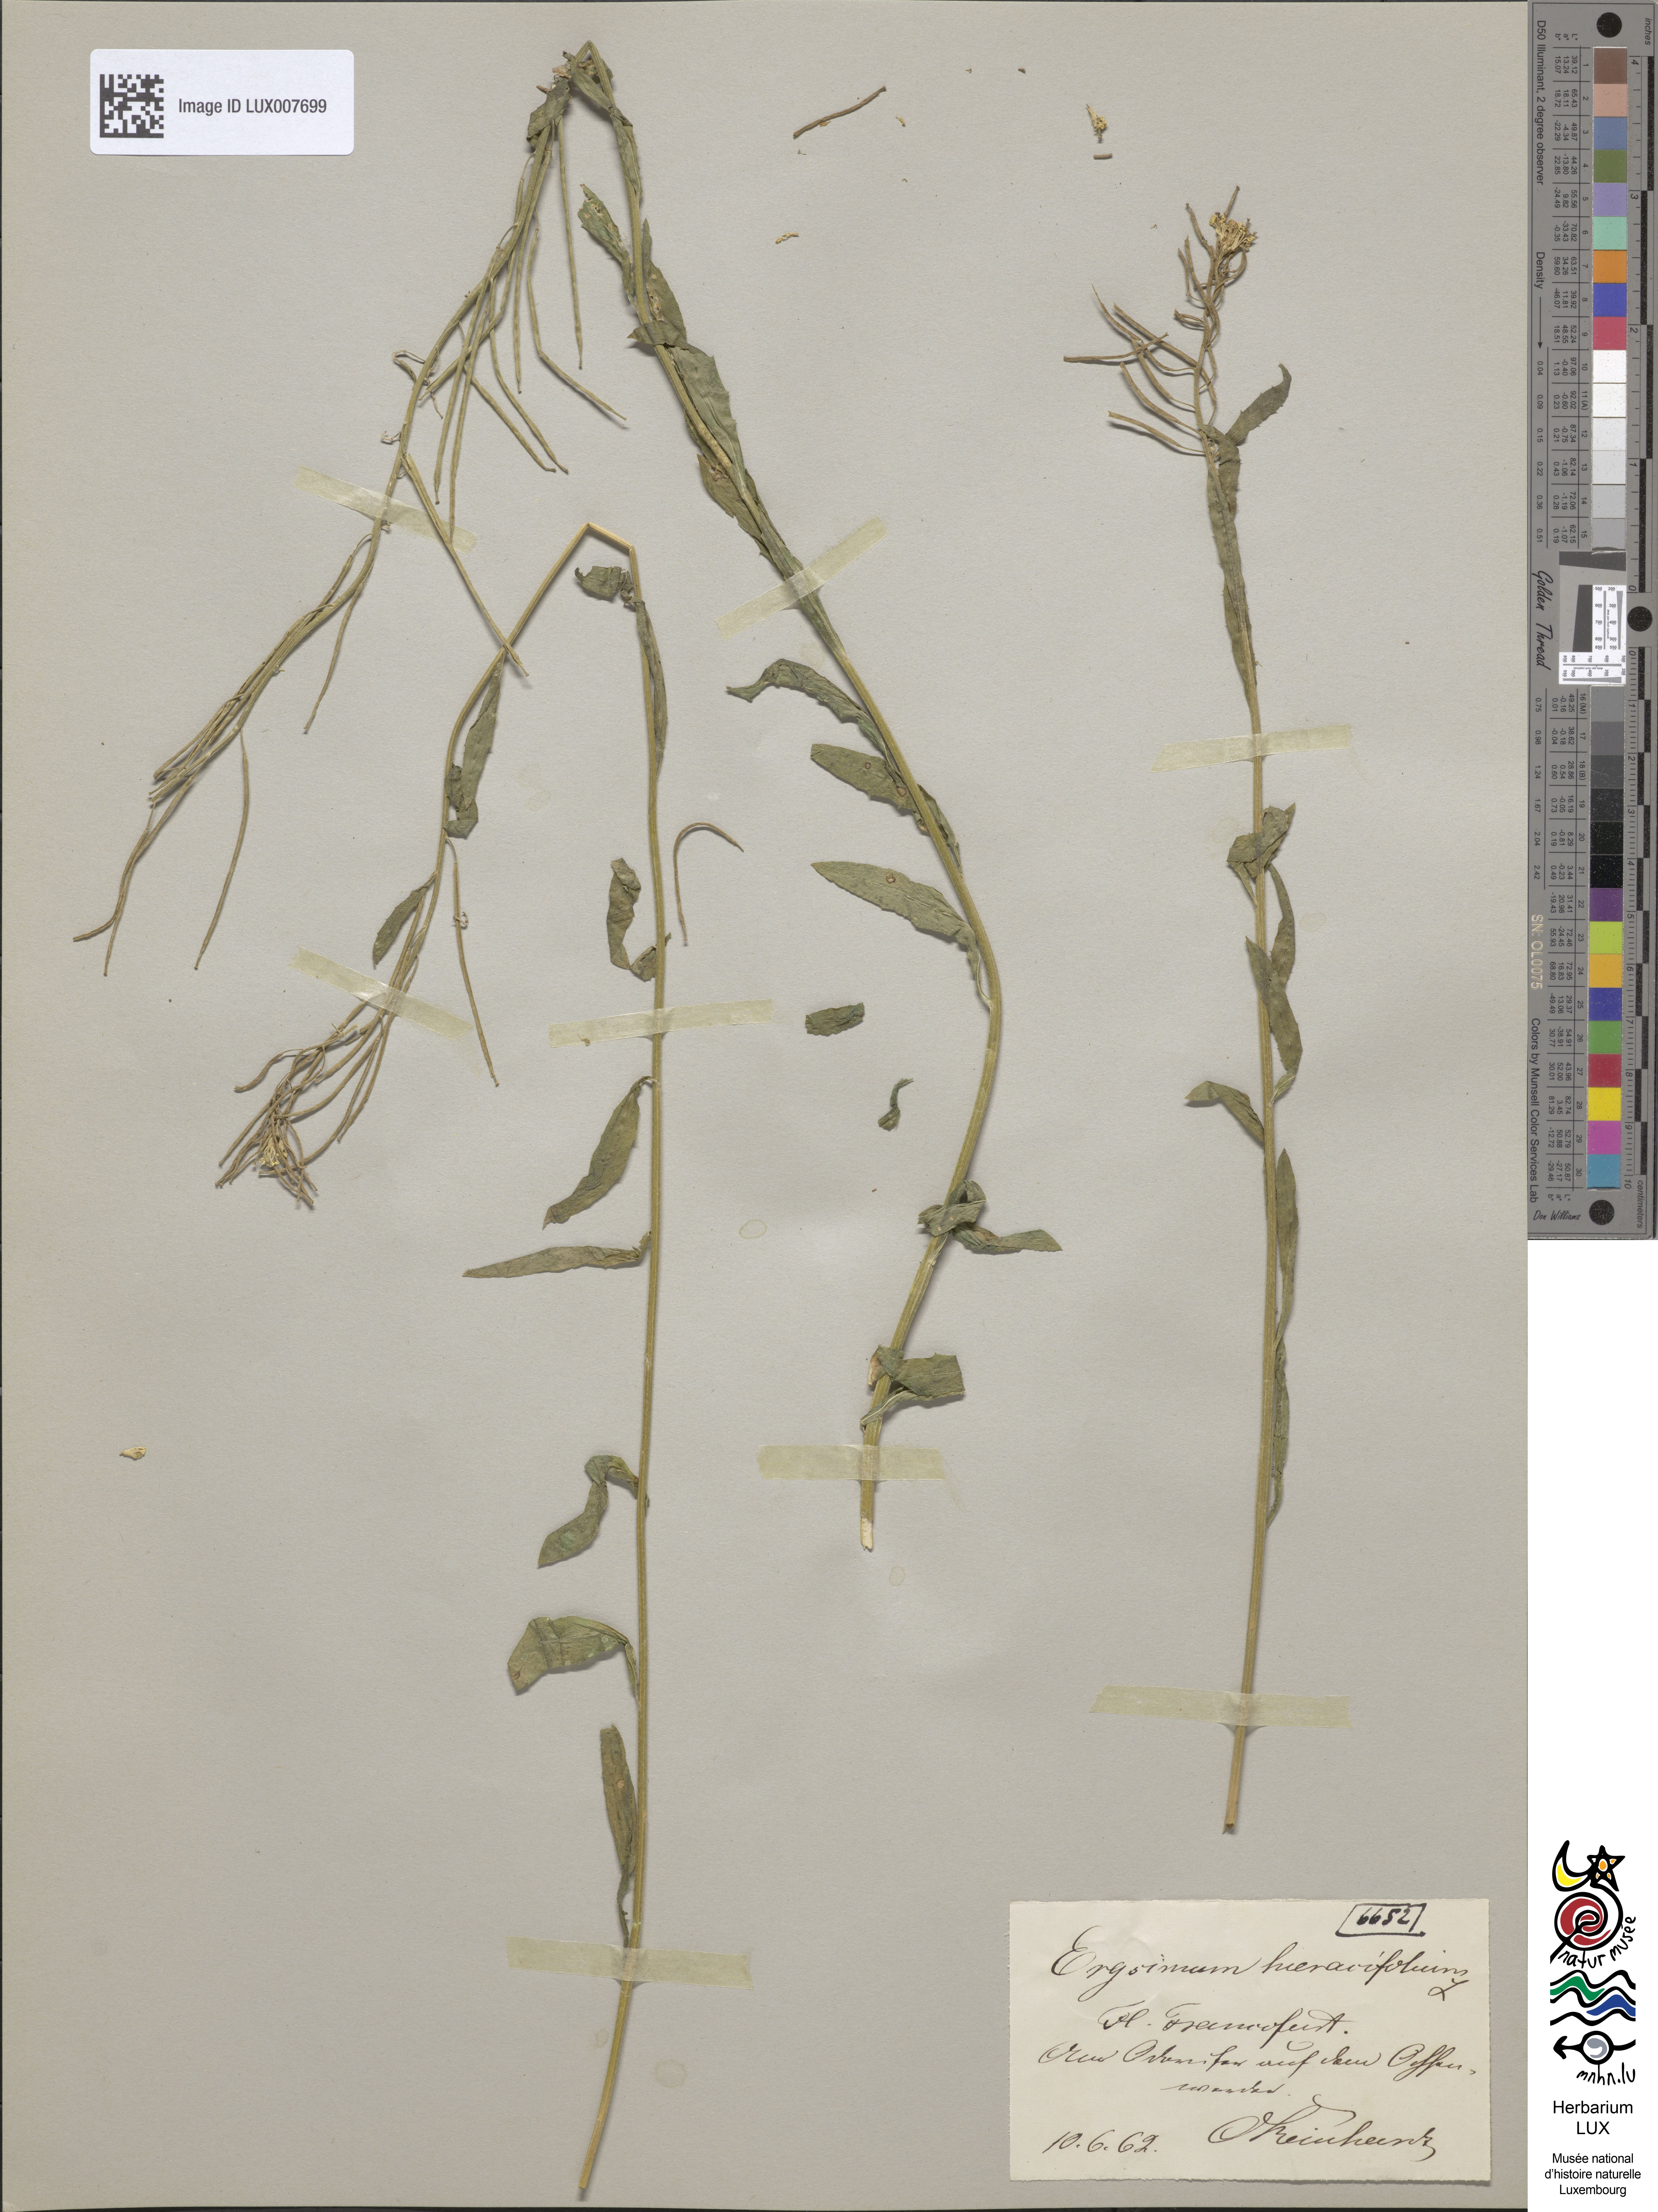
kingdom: Plantae
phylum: Tracheophyta
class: Magnoliopsida
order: Brassicales
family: Brassicaceae
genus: Erysimum
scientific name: Erysimum hieraciifolium
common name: European wallflower
